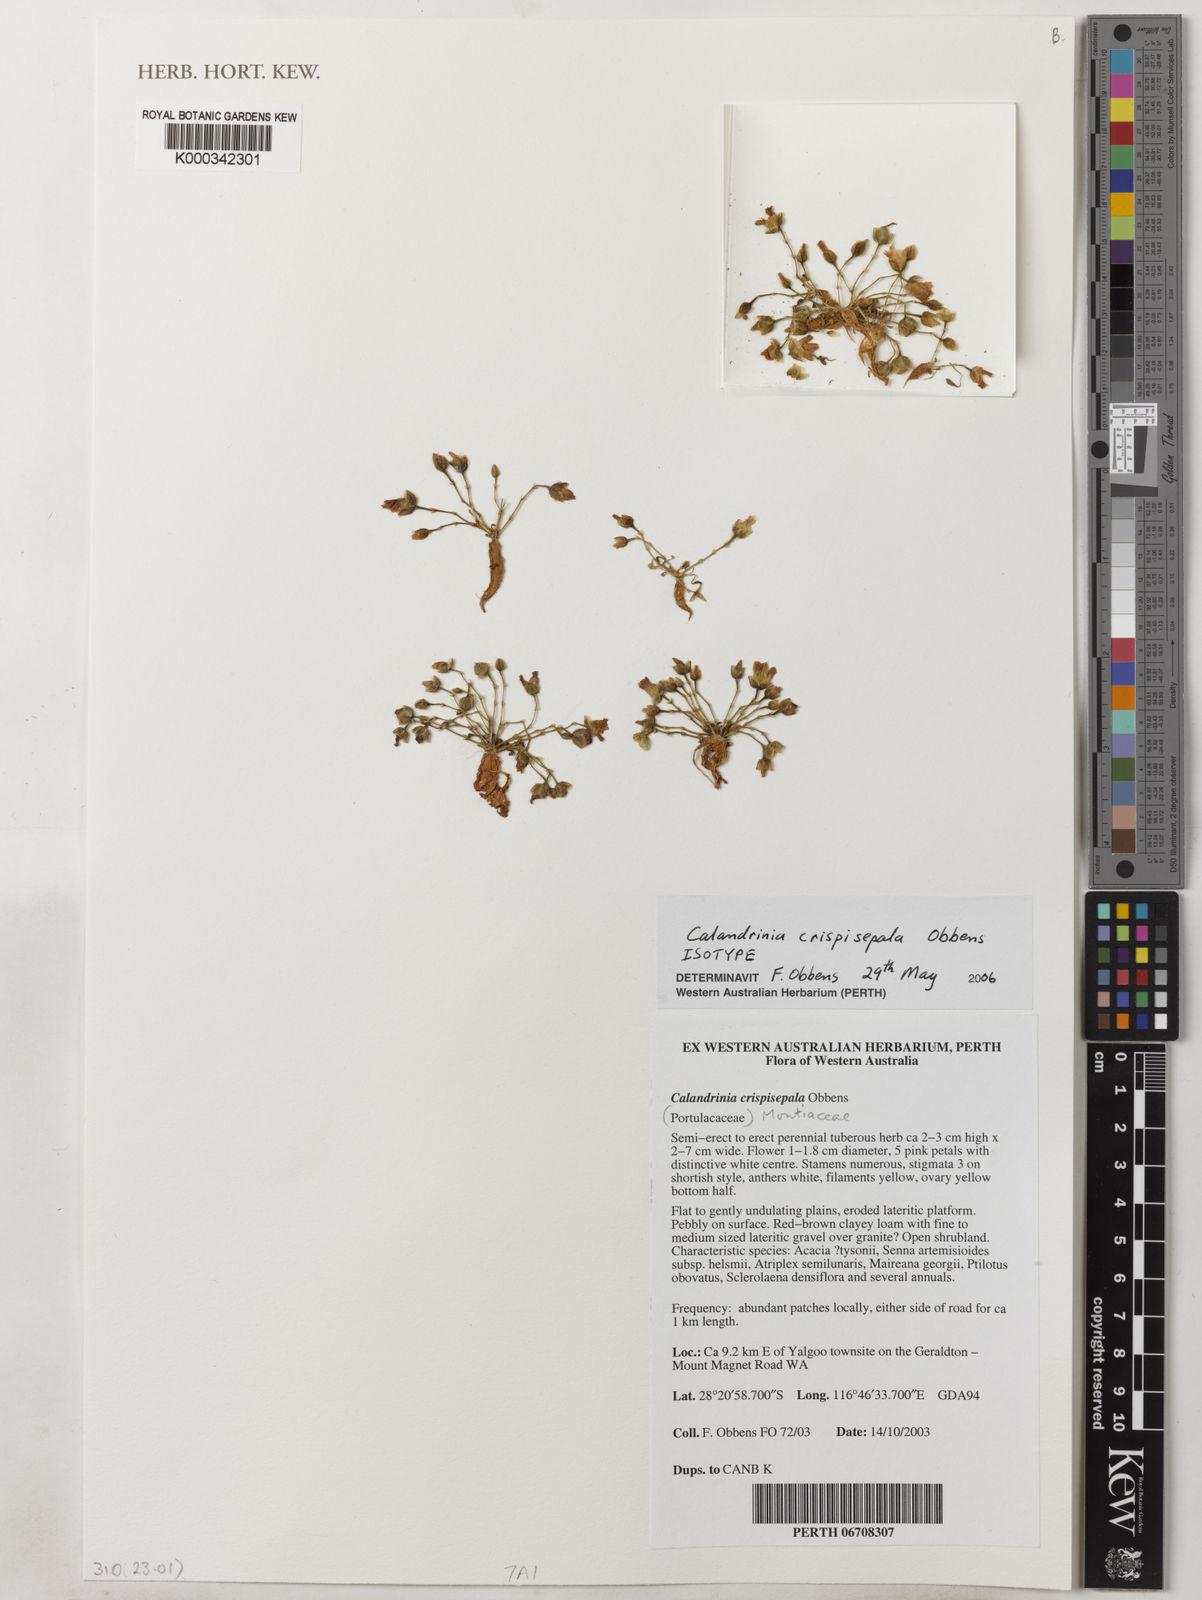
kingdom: Plantae
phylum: Tracheophyta
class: Magnoliopsida
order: Caryophyllales
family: Montiaceae
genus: Rumicastrum
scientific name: Rumicastrum crispisepalum
